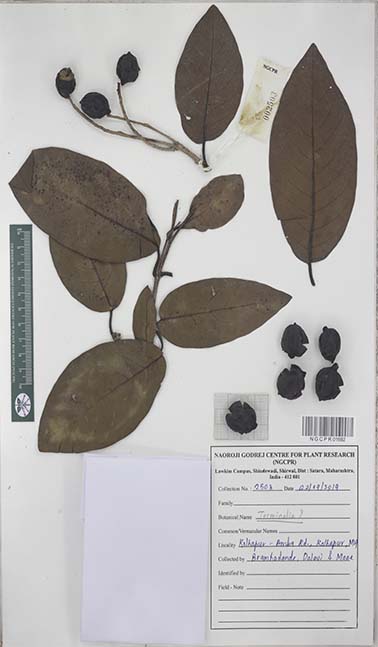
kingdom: Plantae
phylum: Tracheophyta
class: Magnoliopsida
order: Myrtales
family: Combretaceae
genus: Terminalia
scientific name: Terminalia
